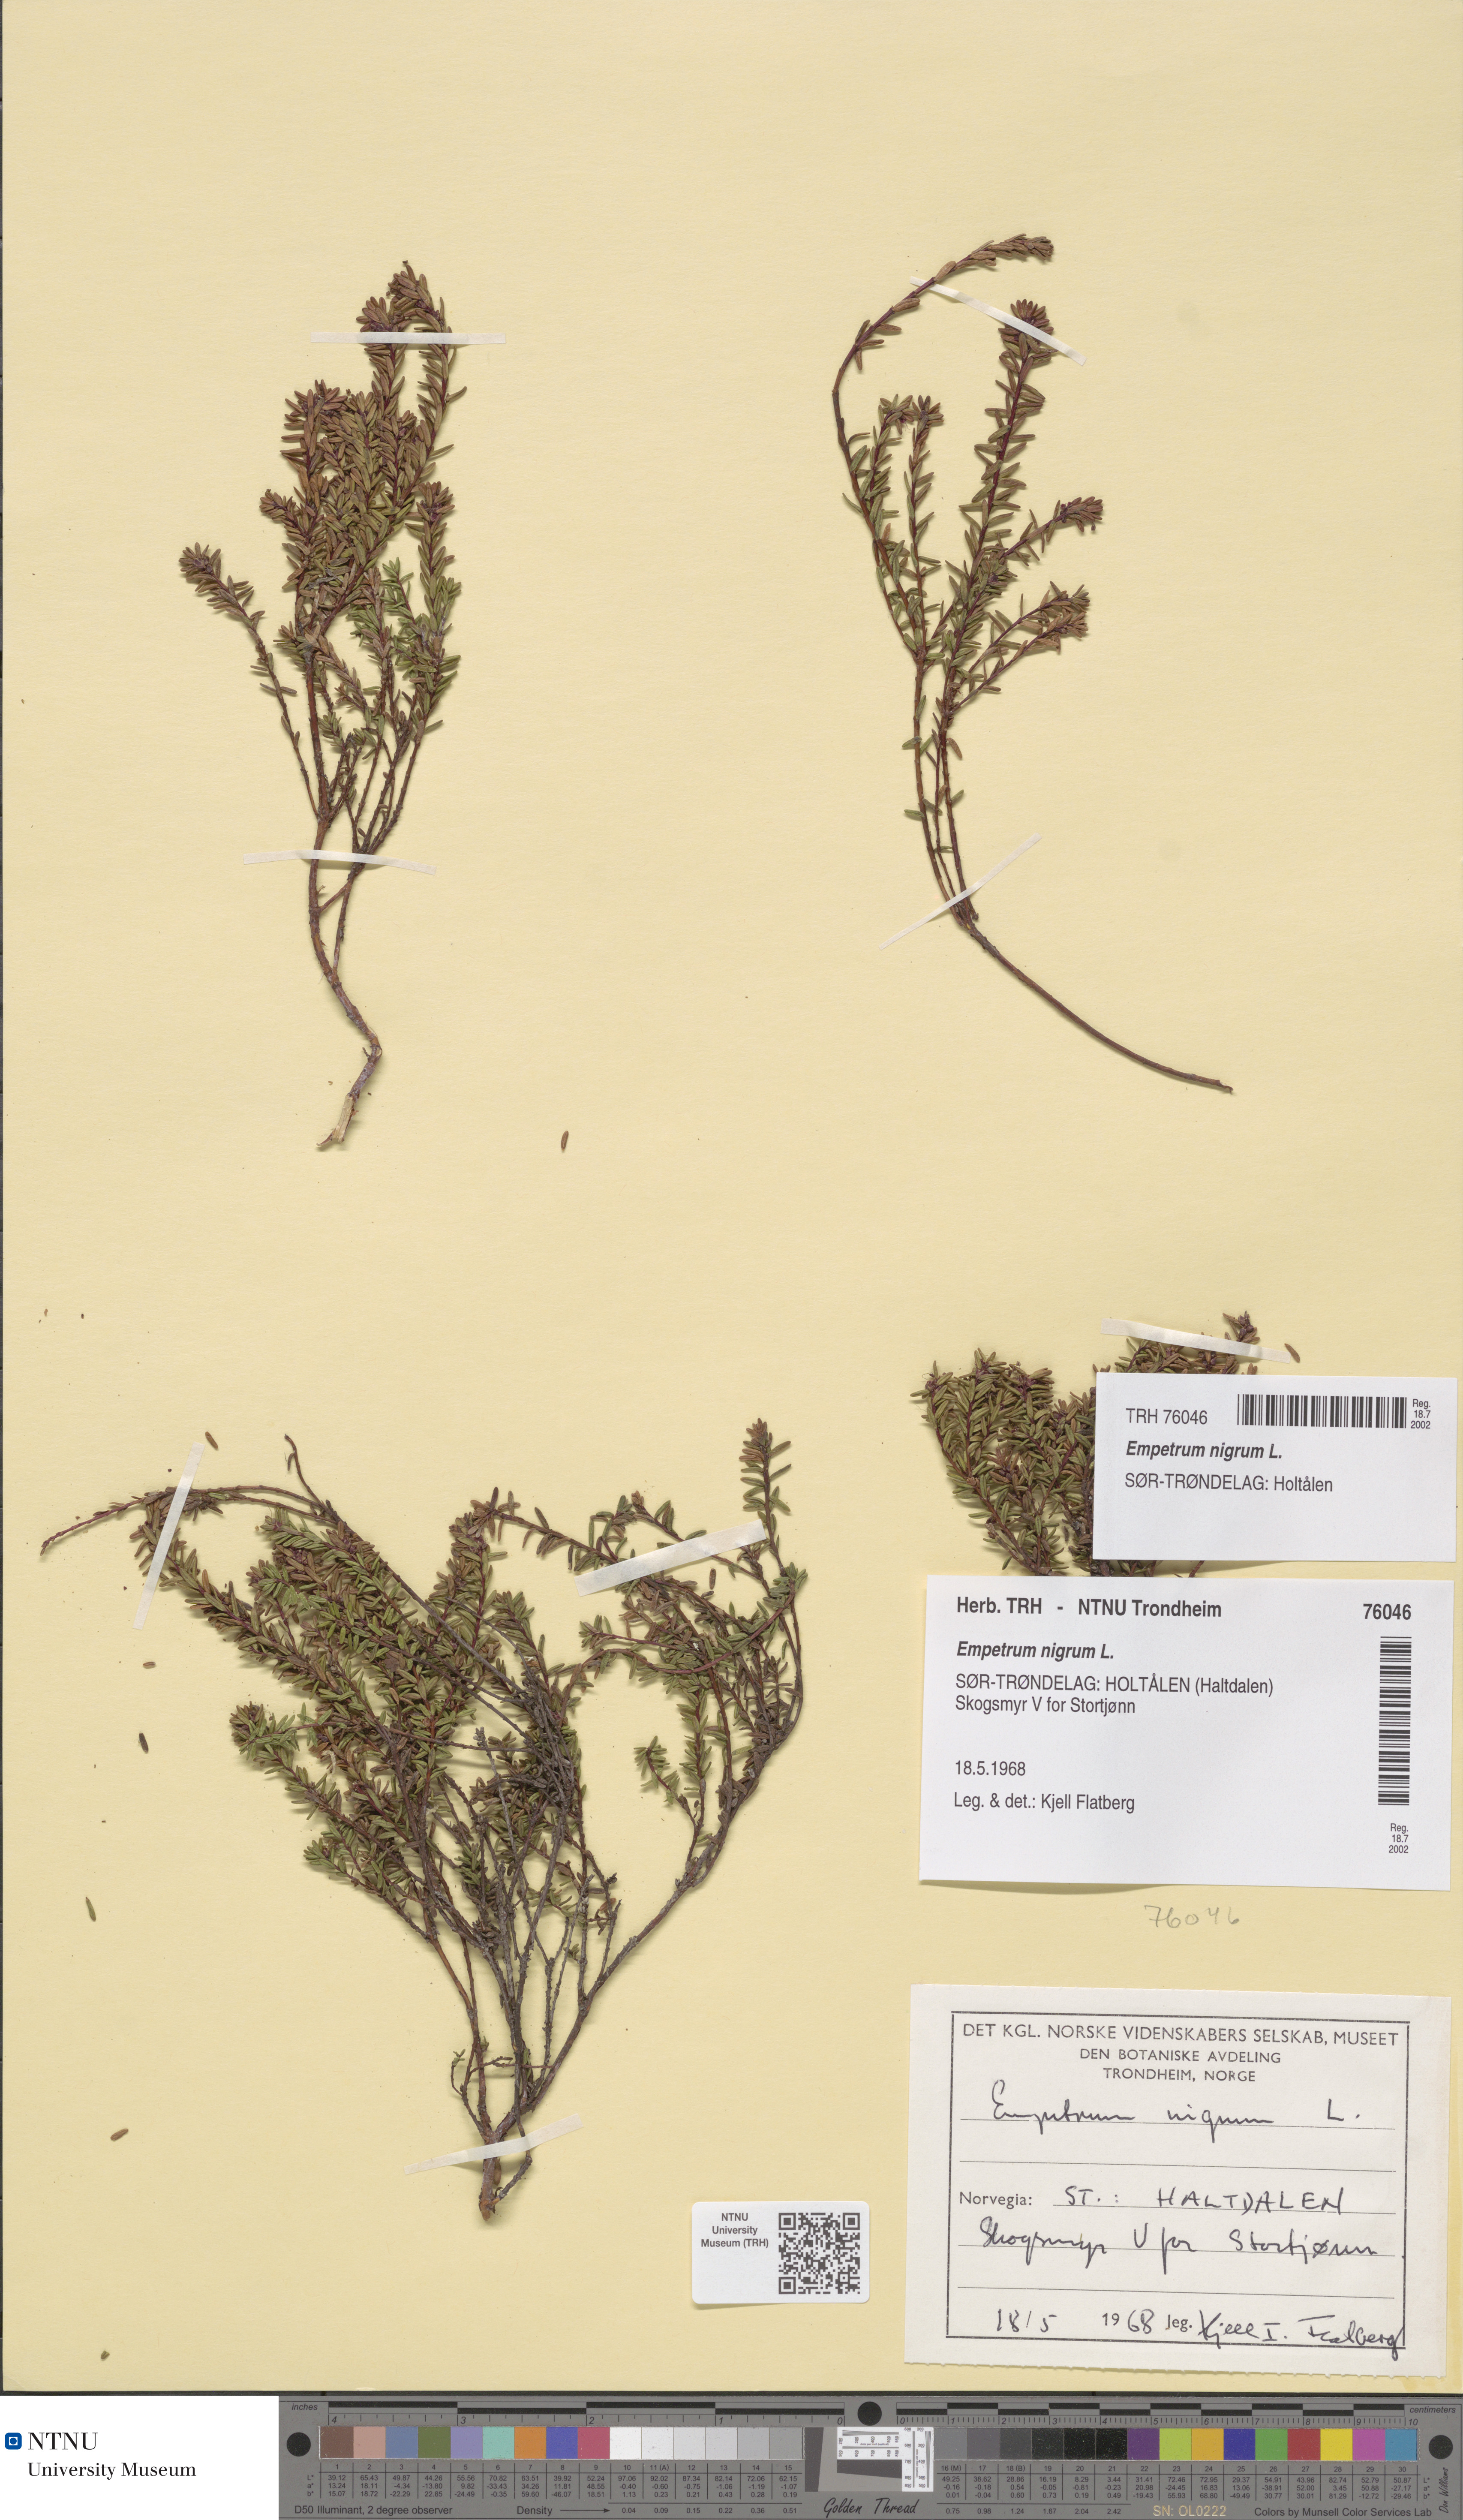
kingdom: Plantae
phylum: Tracheophyta
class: Magnoliopsida
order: Ericales
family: Ericaceae
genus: Empetrum
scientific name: Empetrum nigrum
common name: Black crowberry
